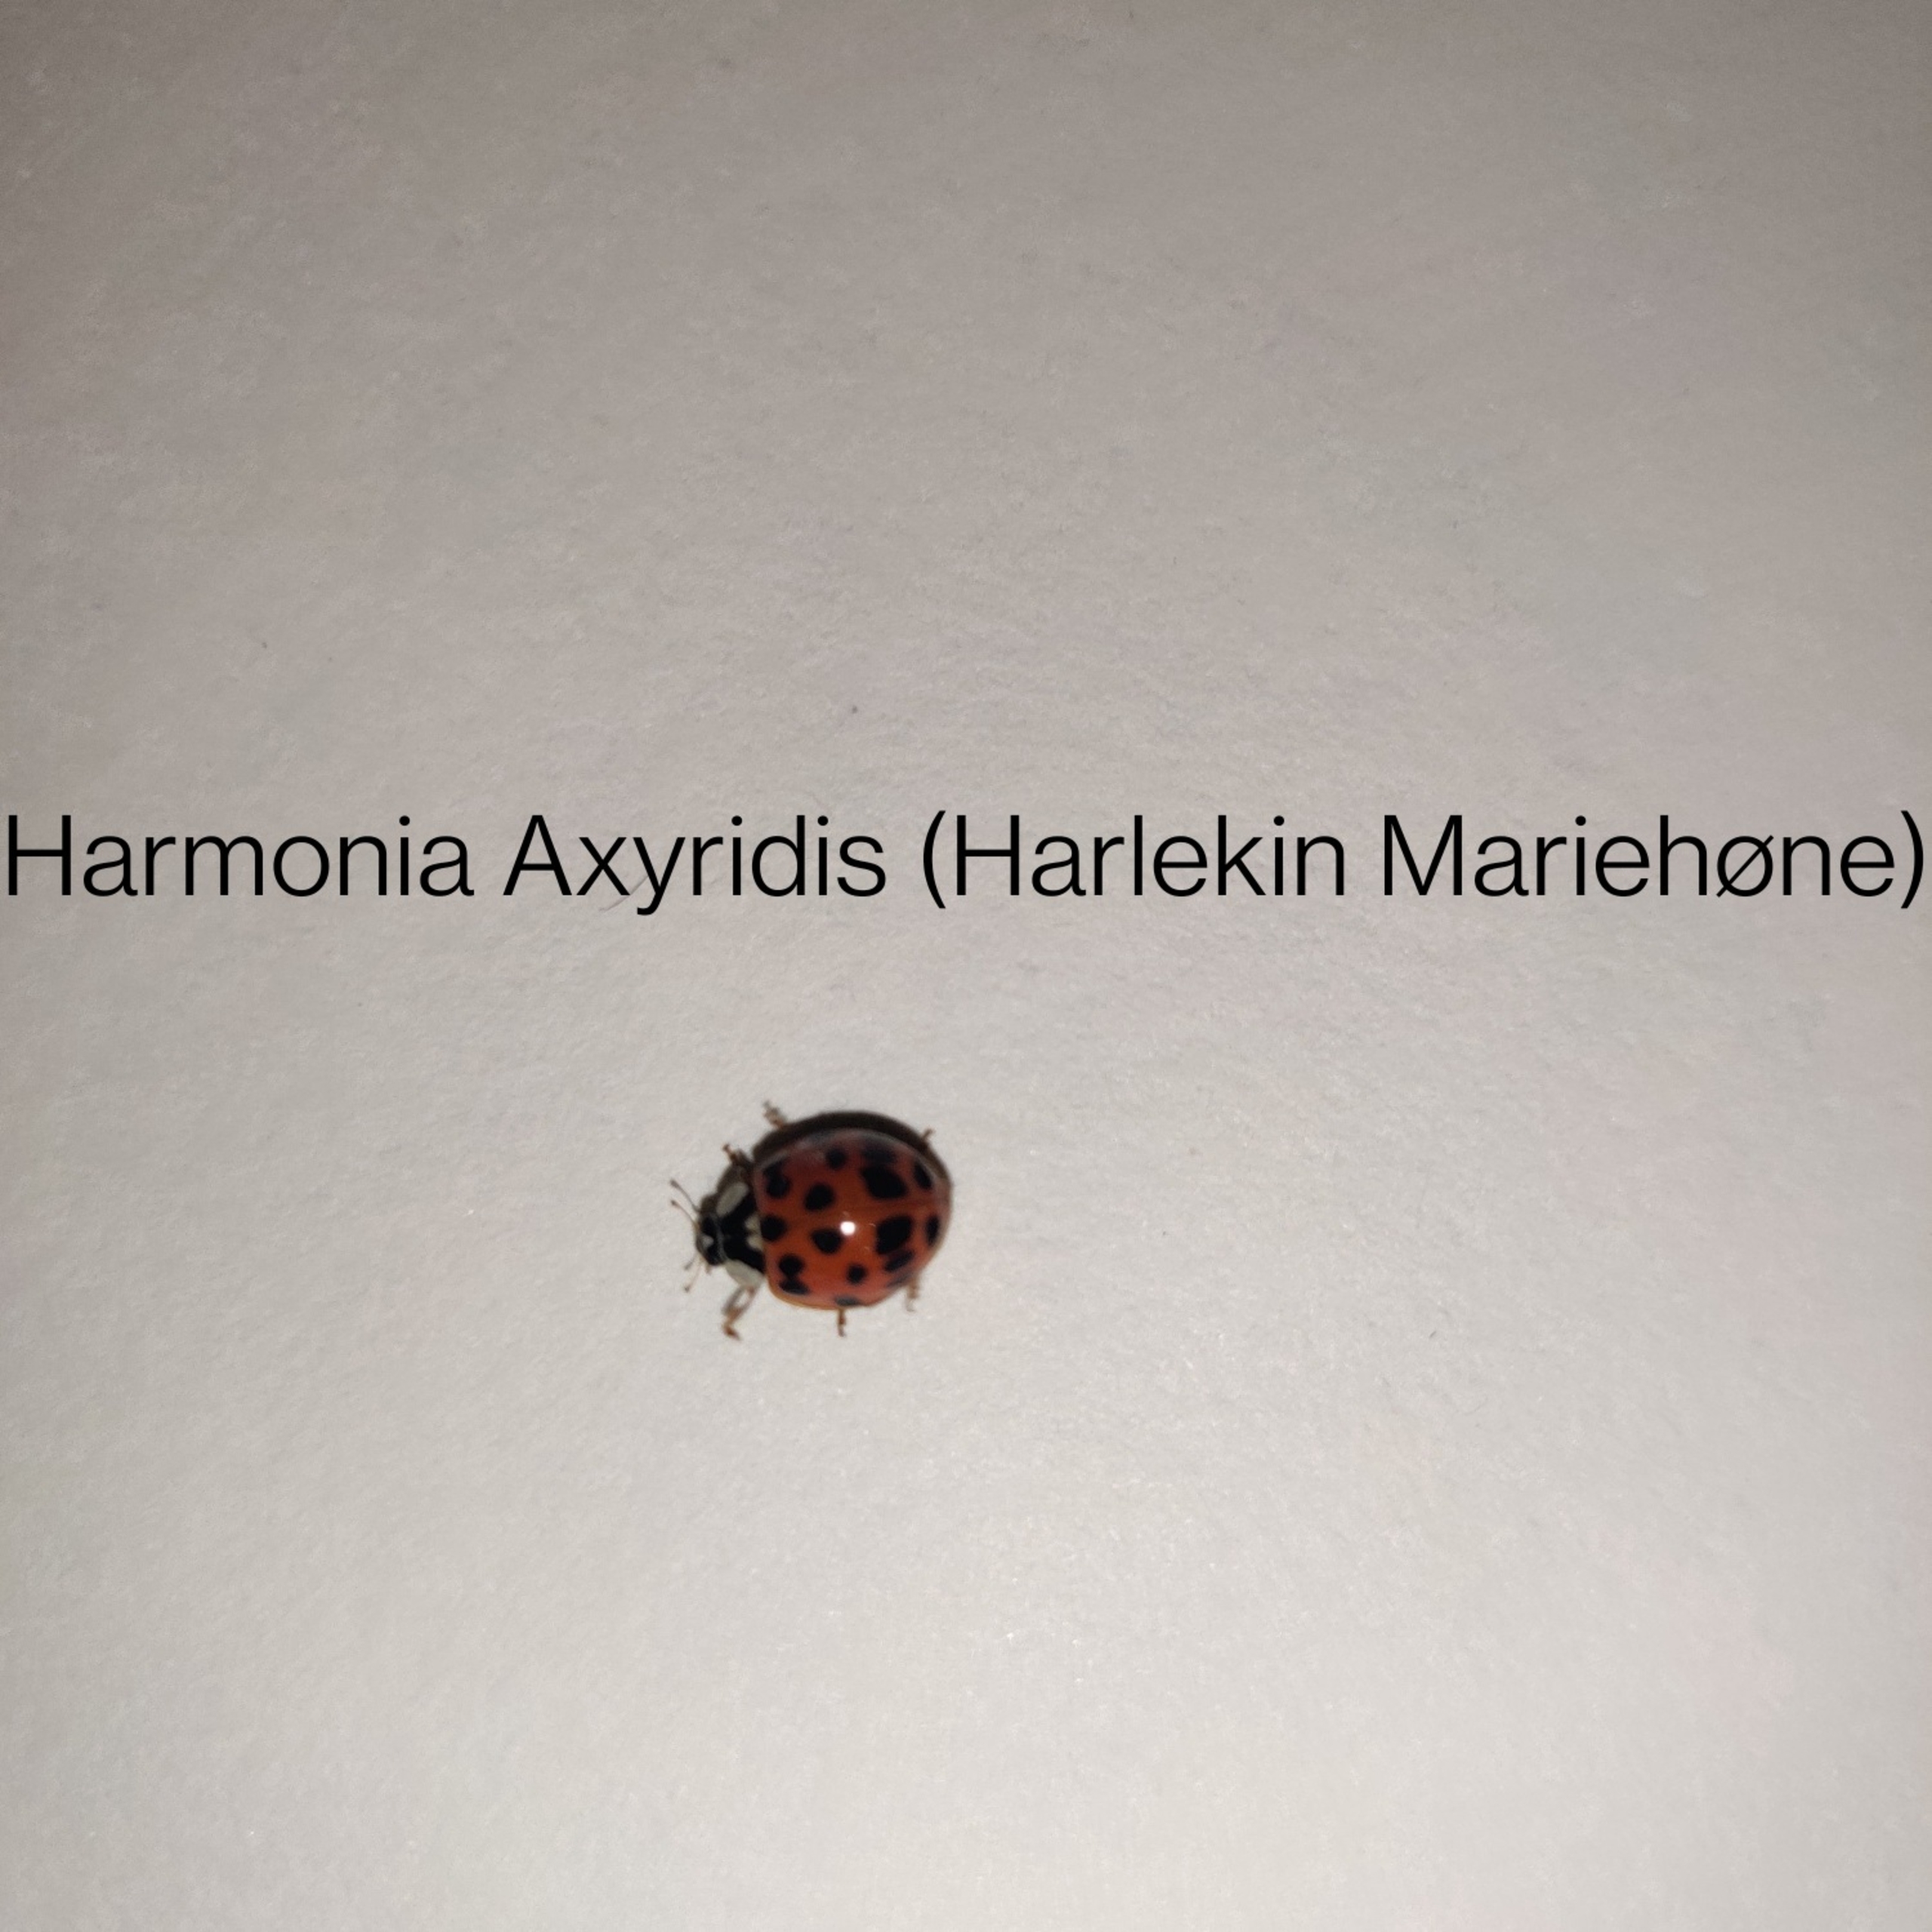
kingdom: Animalia
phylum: Arthropoda
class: Insecta
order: Coleoptera
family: Coccinellidae
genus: Harmonia
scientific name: Harmonia axyridis
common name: Harlekinmariehøne
